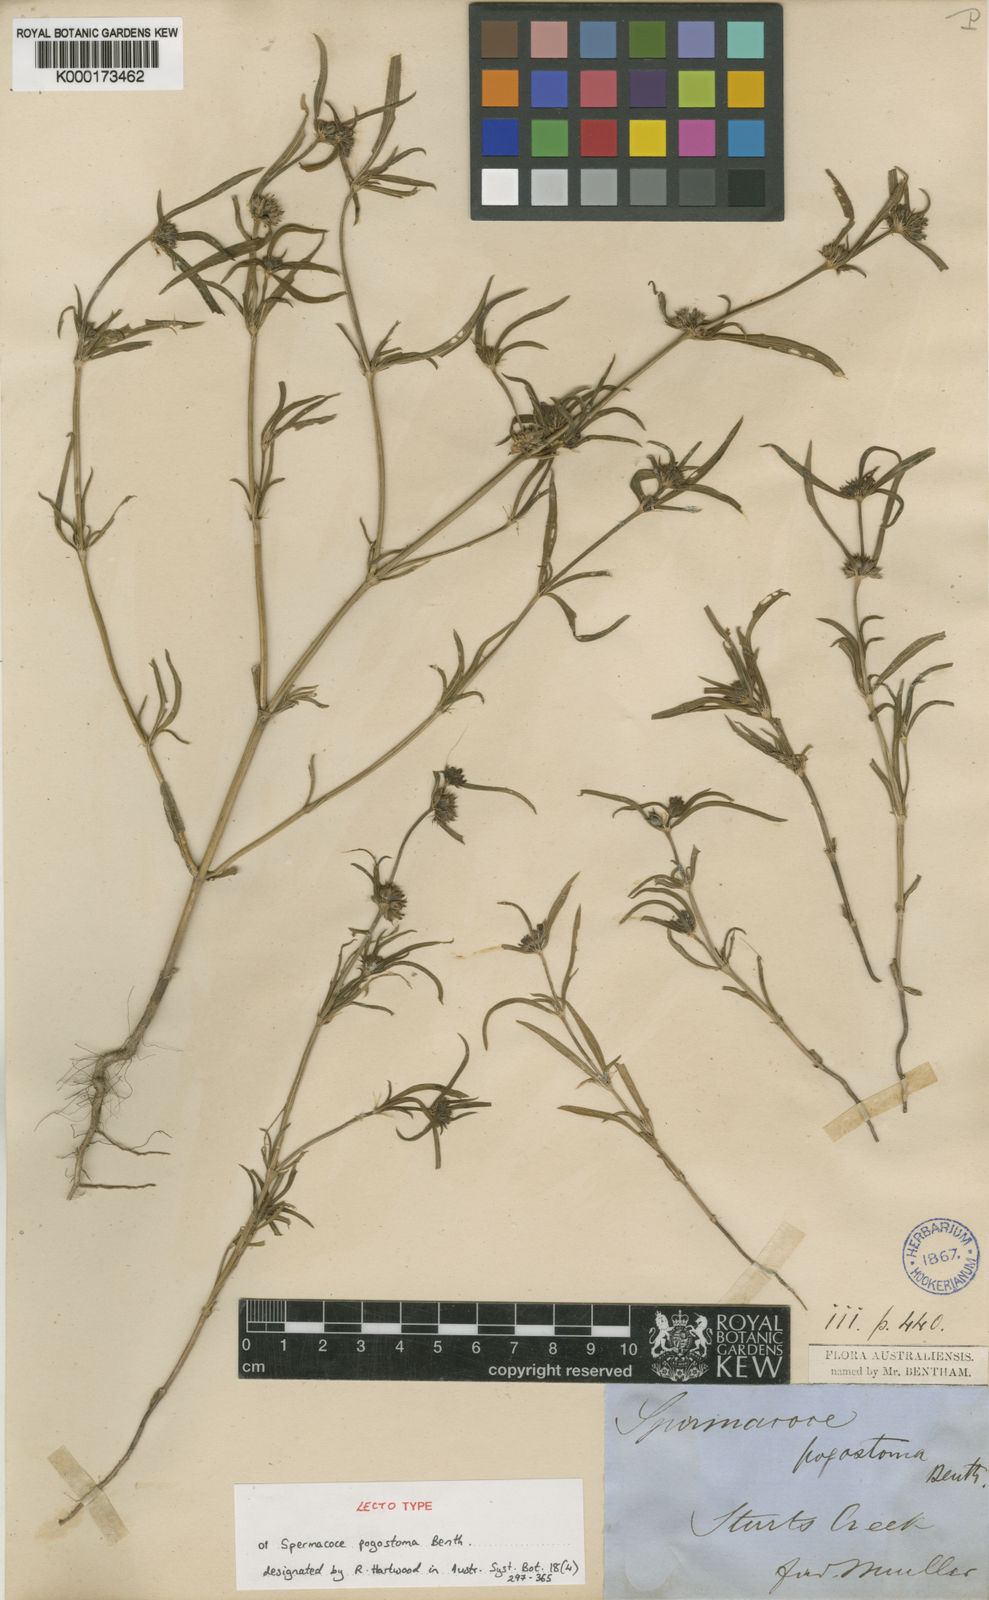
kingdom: Plantae
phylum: Tracheophyta
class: Magnoliopsida
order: Gentianales
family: Rubiaceae
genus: Spermacoce
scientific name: Spermacoce pogostoma
